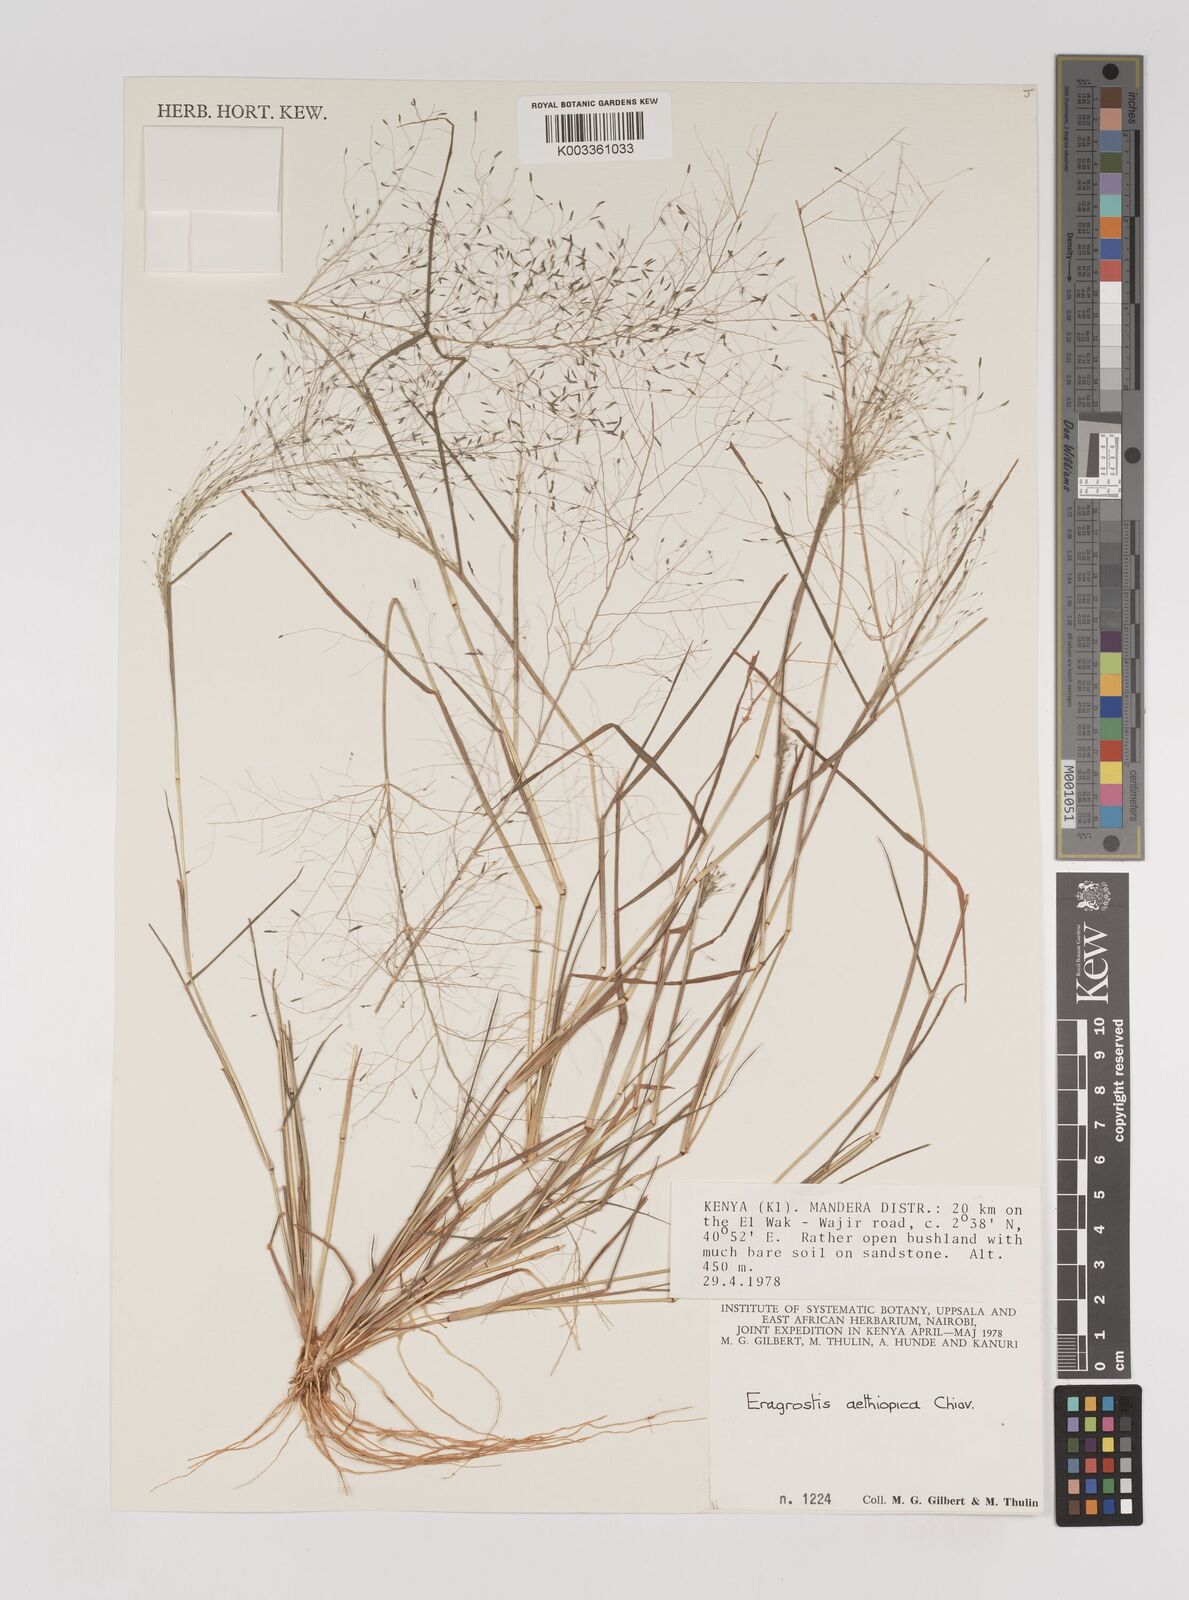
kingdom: Plantae
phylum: Tracheophyta
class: Liliopsida
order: Poales
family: Poaceae
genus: Eragrostis
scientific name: Eragrostis aethiopica
